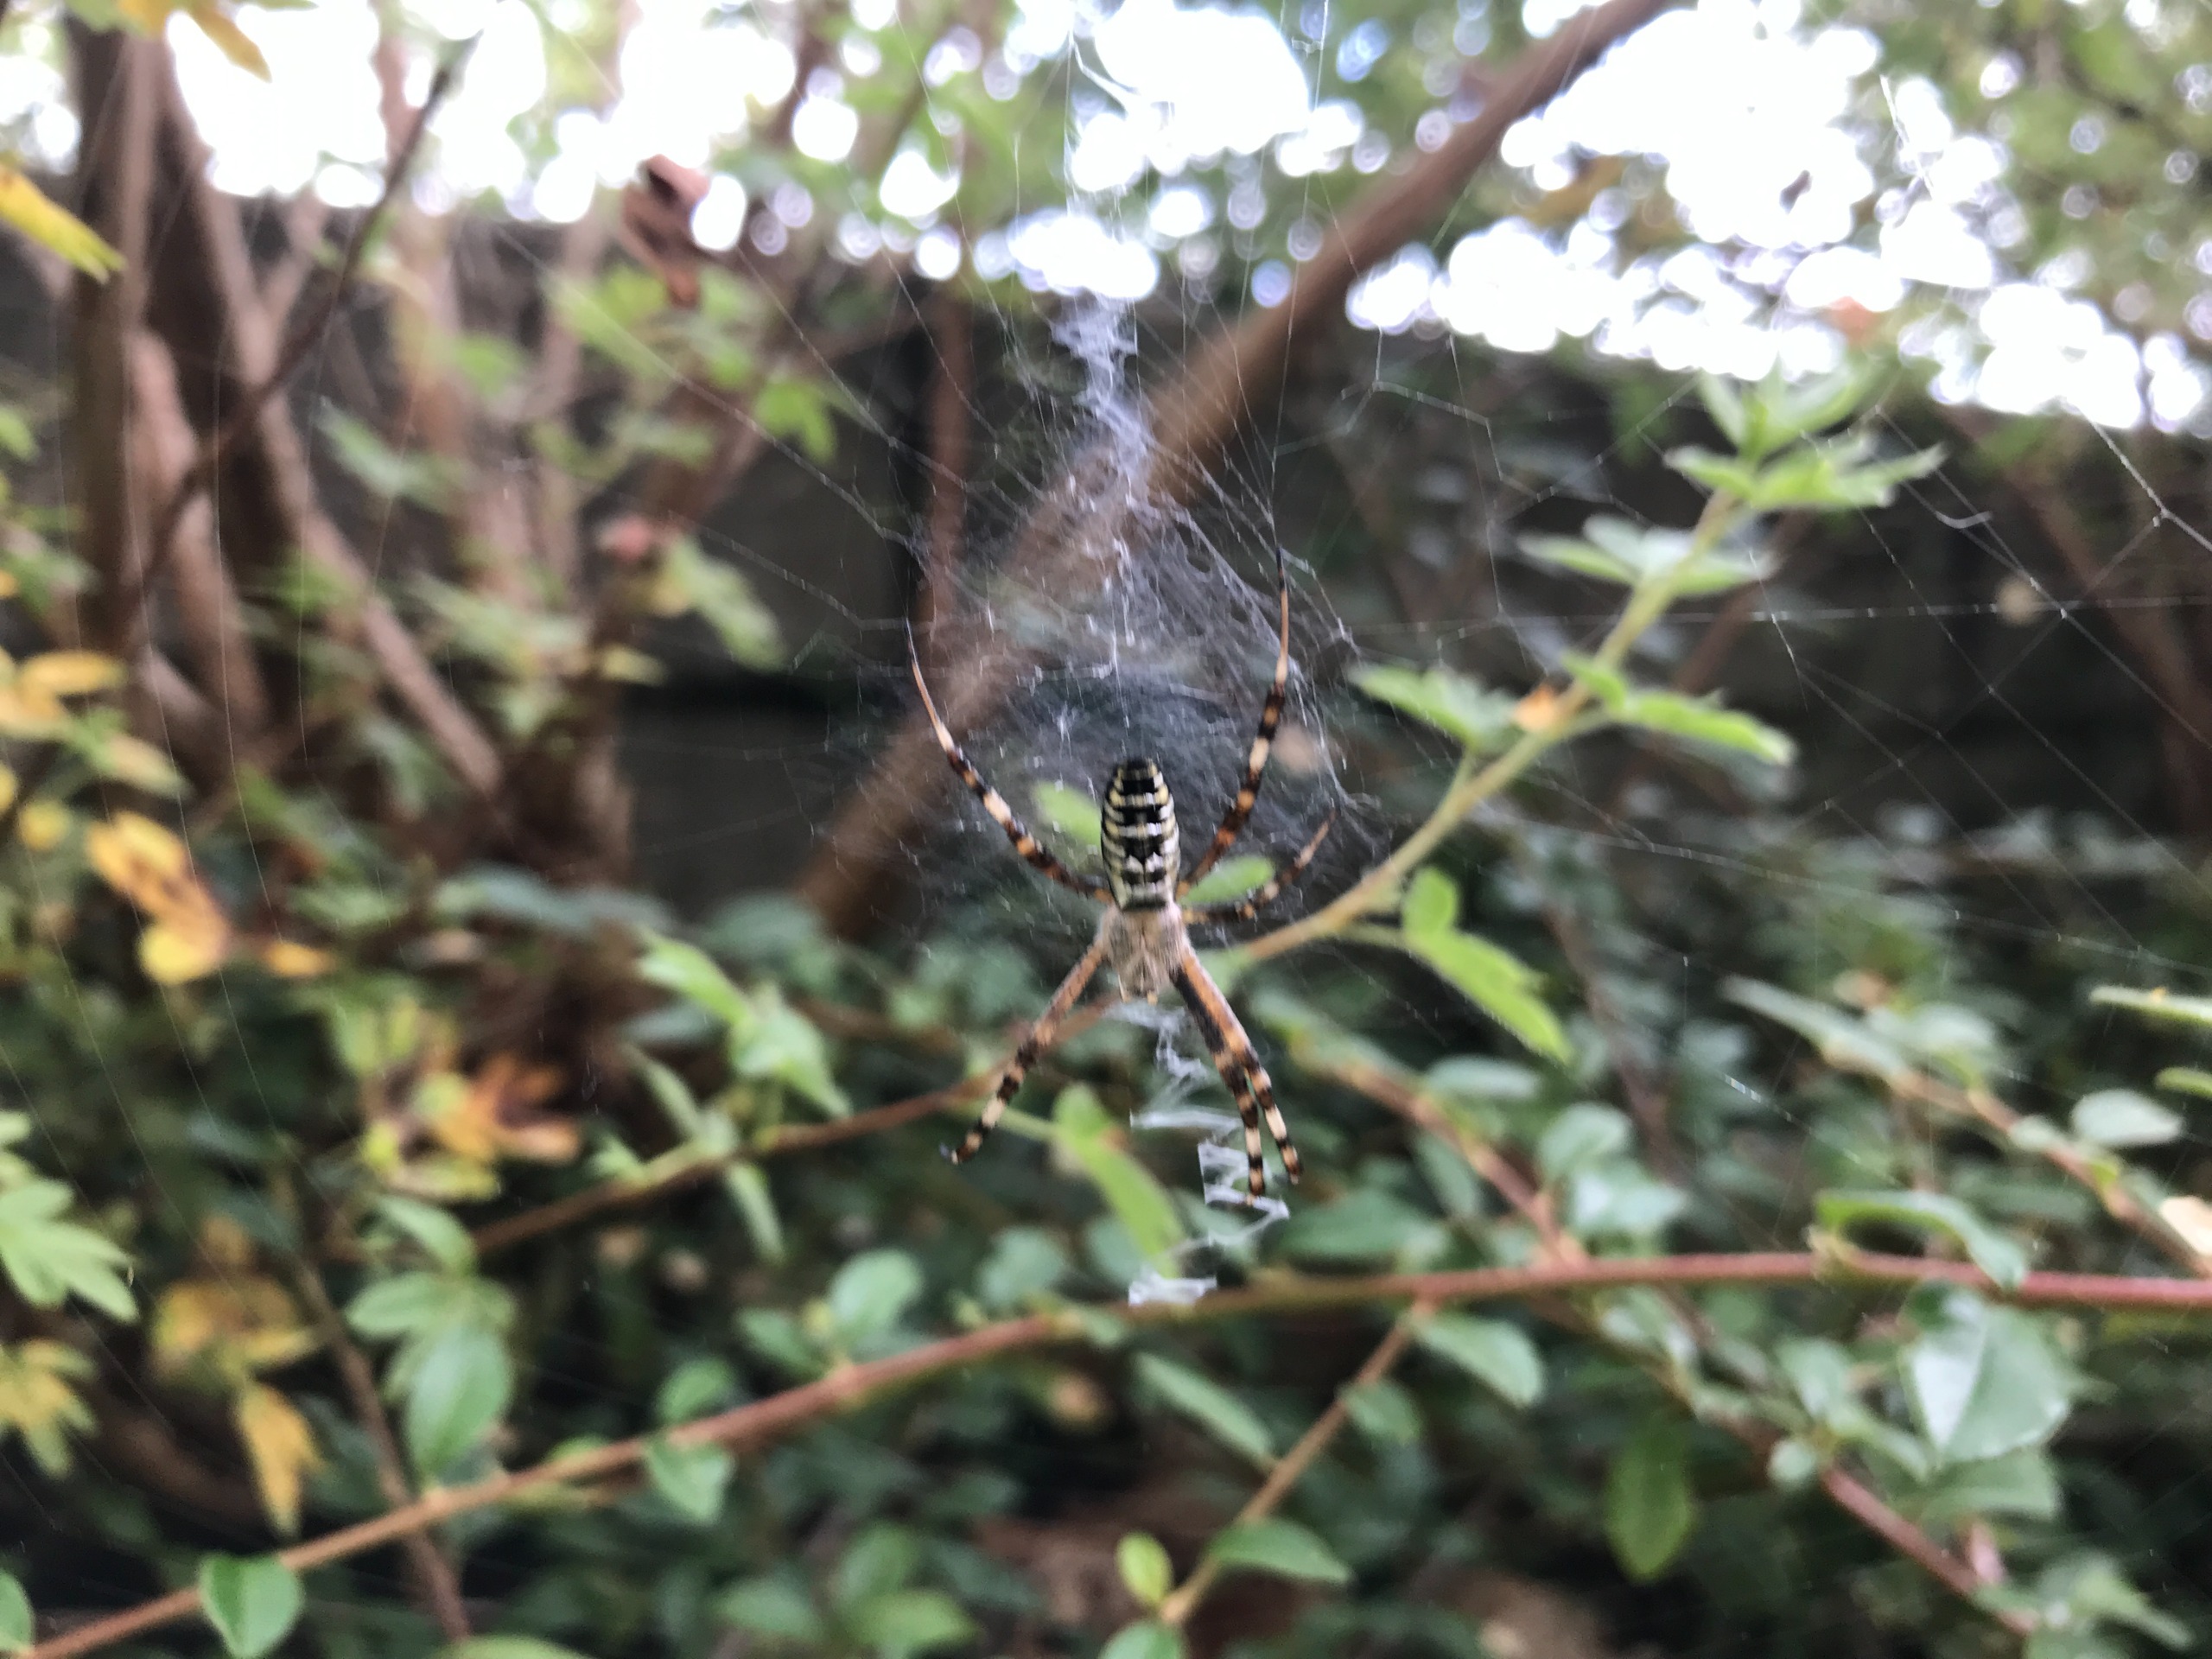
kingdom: Animalia
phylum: Arthropoda
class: Arachnida
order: Araneae
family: Araneidae
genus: Argiope
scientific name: Argiope bruennichi
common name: Hvepseedderkop
